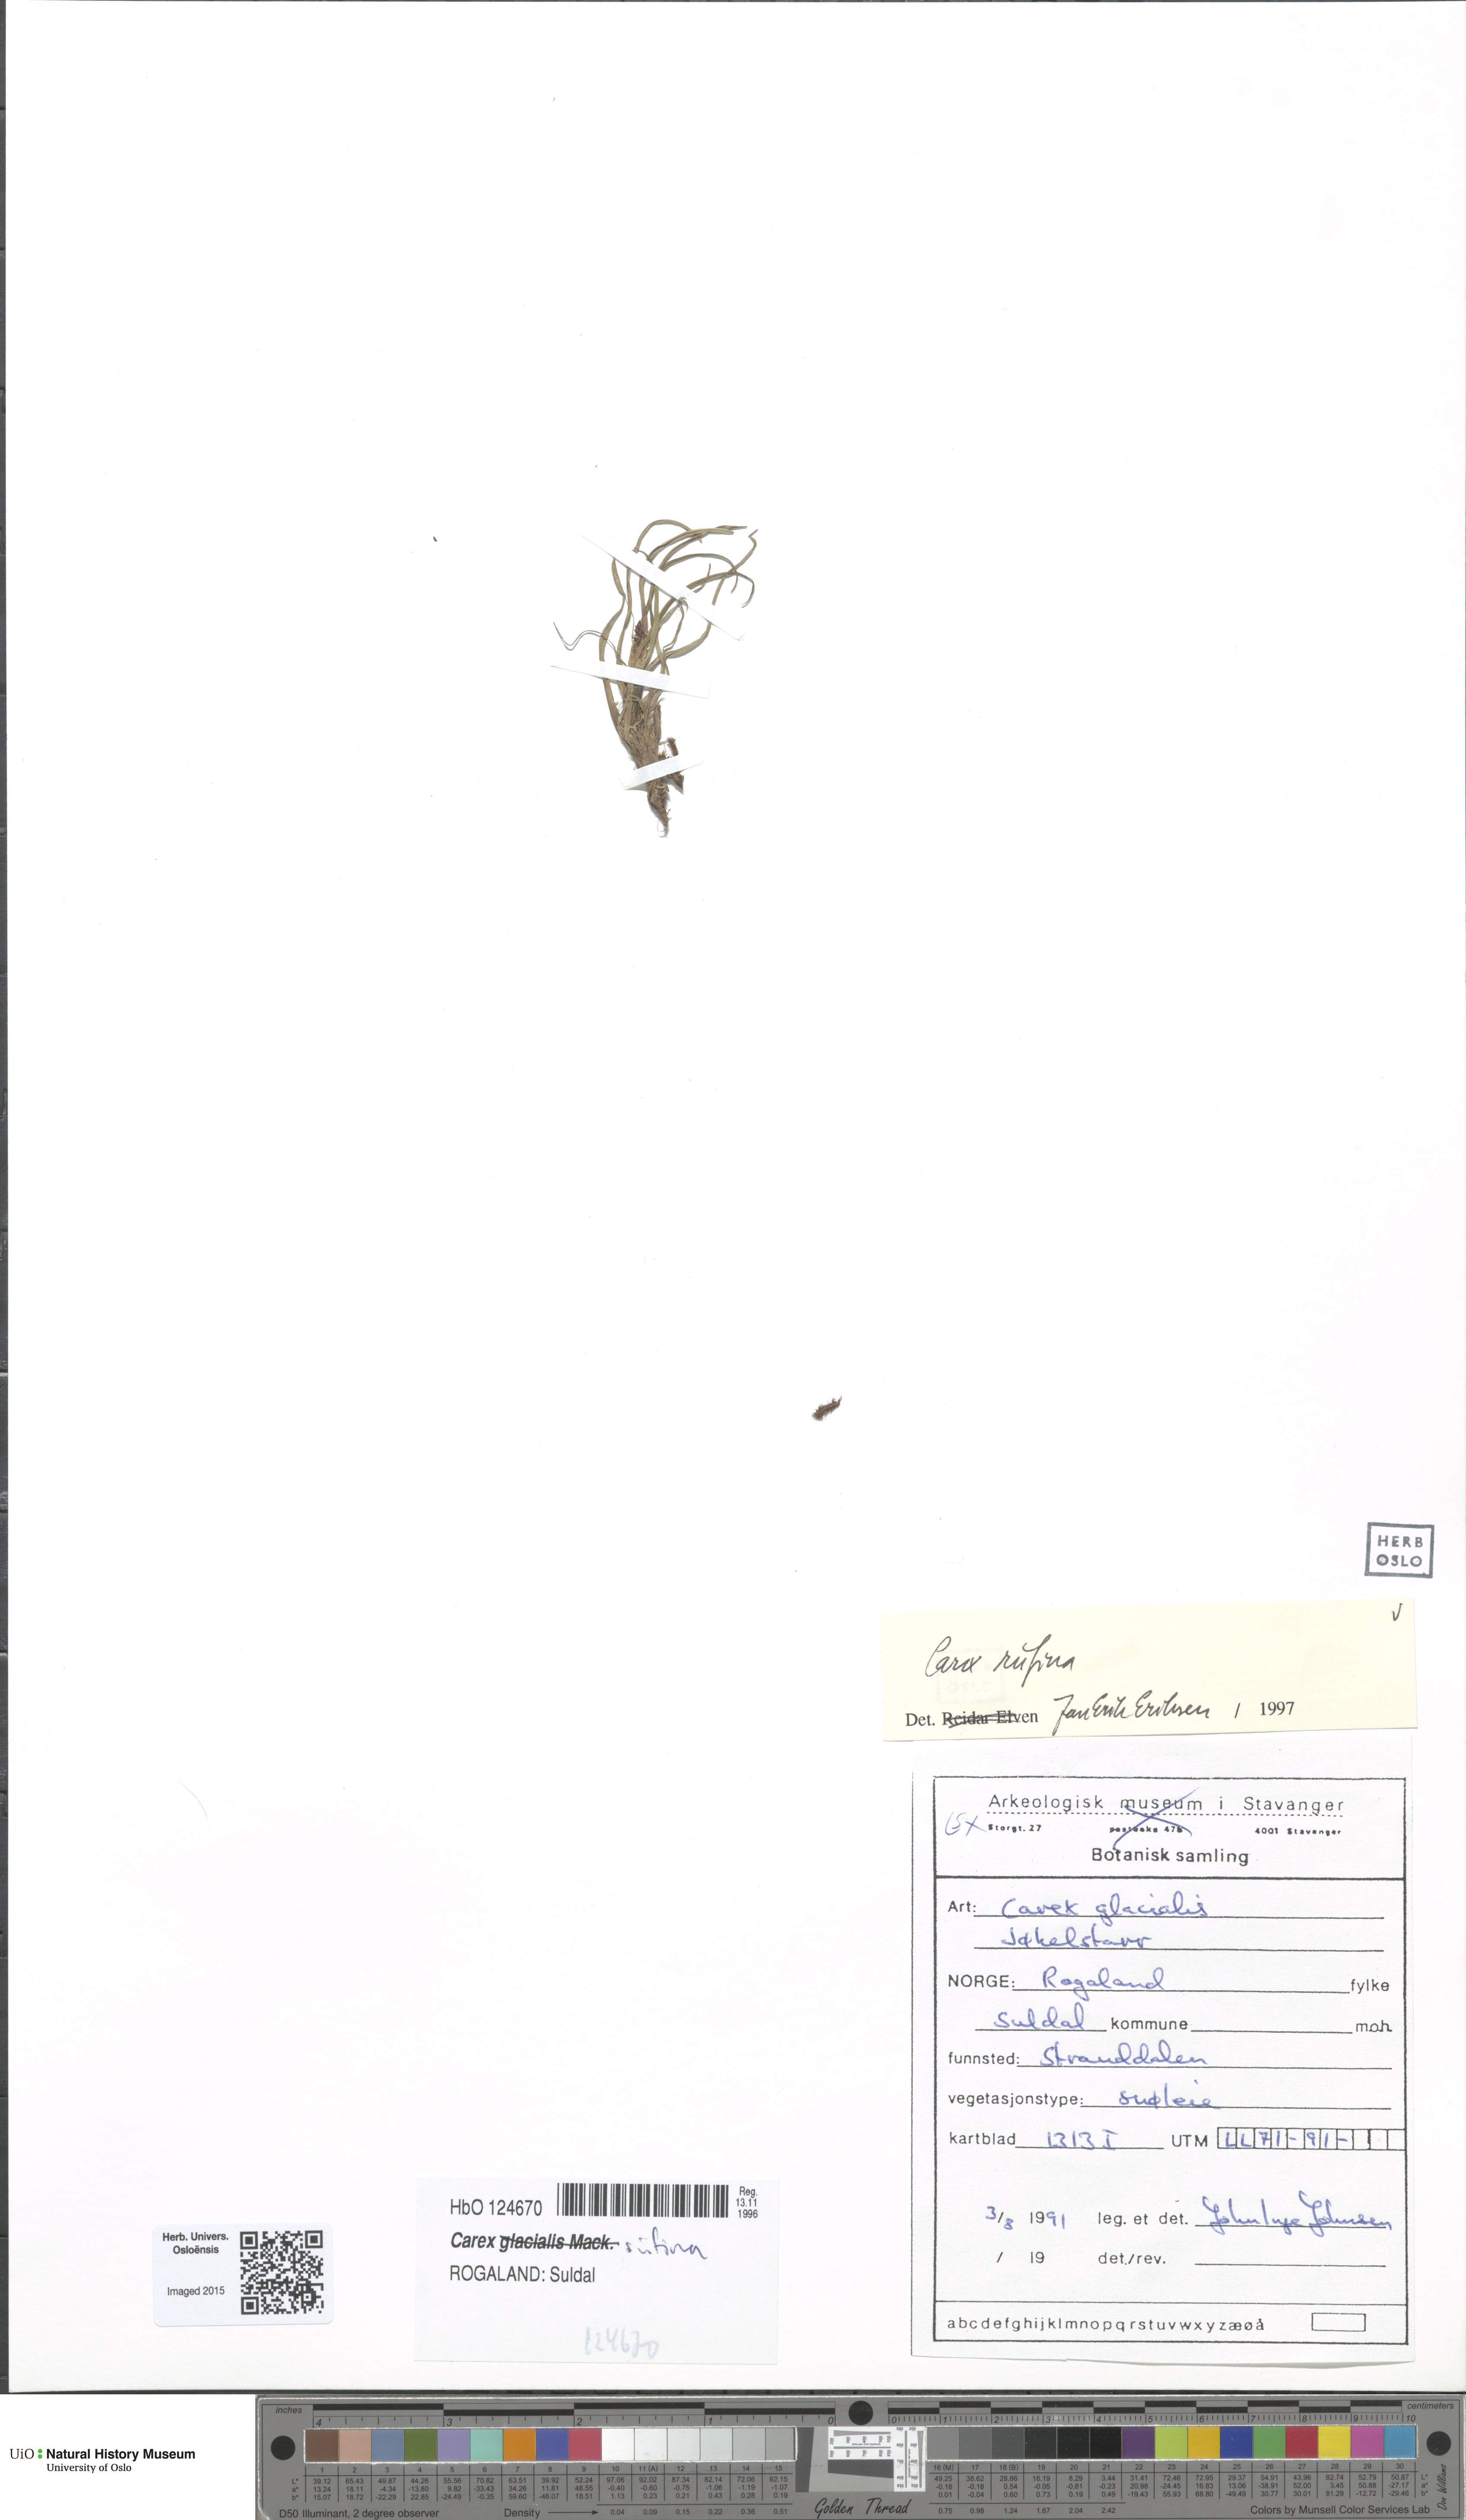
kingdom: Plantae
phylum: Tracheophyta
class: Liliopsida
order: Poales
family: Cyperaceae
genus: Carex
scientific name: Carex rufina
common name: Reddish sedge
